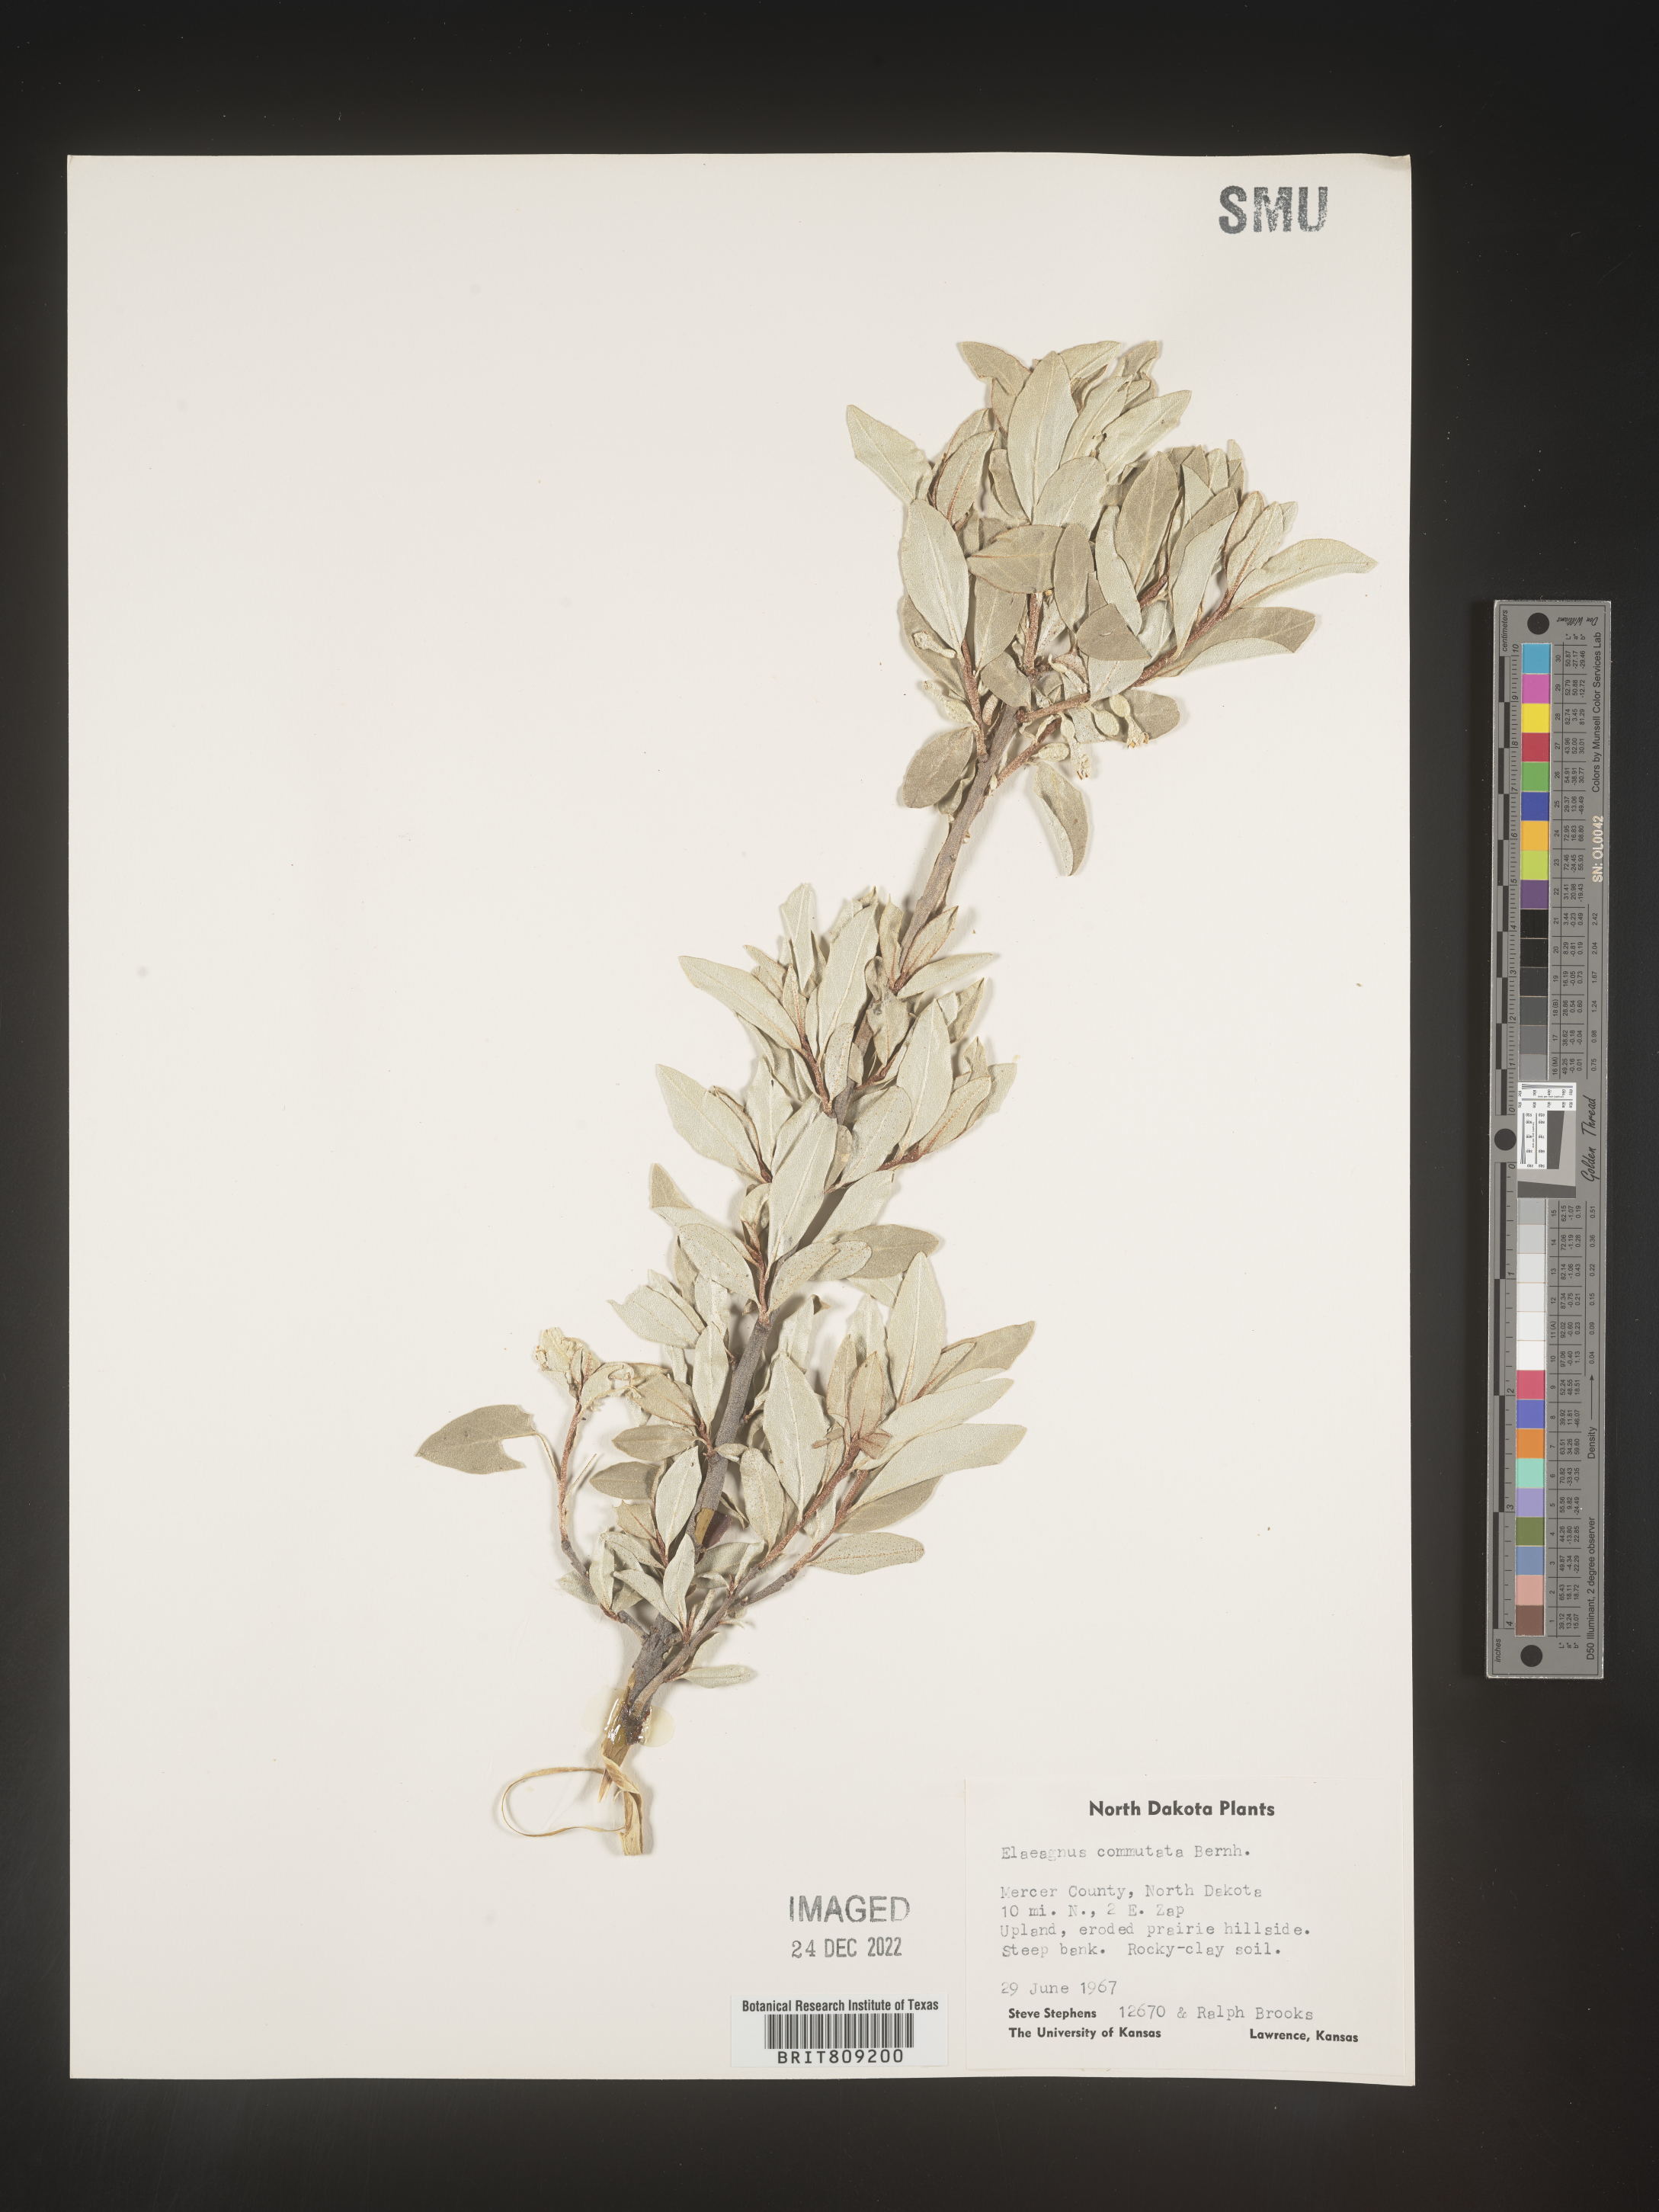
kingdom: Plantae
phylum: Tracheophyta
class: Magnoliopsida
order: Rosales
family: Elaeagnaceae
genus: Elaeagnus
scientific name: Elaeagnus
